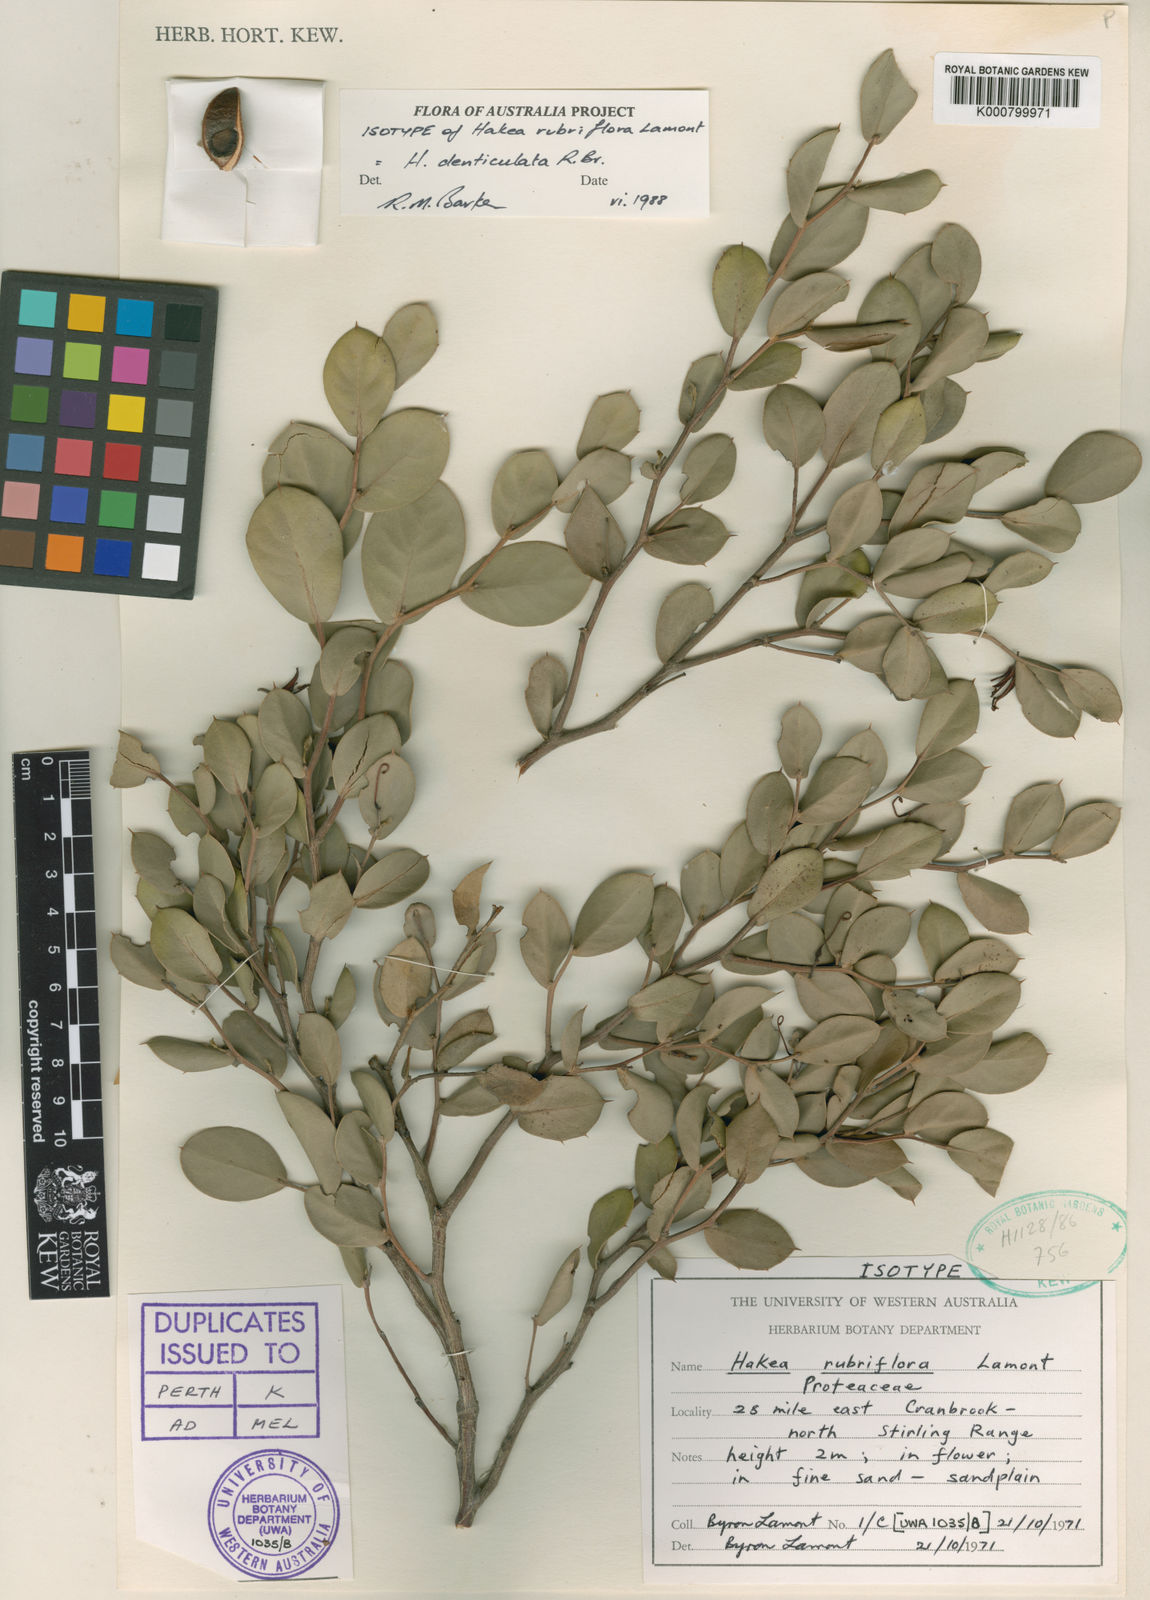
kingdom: Plantae
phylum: Tracheophyta
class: Magnoliopsida
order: Proteales
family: Proteaceae
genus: Hakea
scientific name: Hakea denticulata
